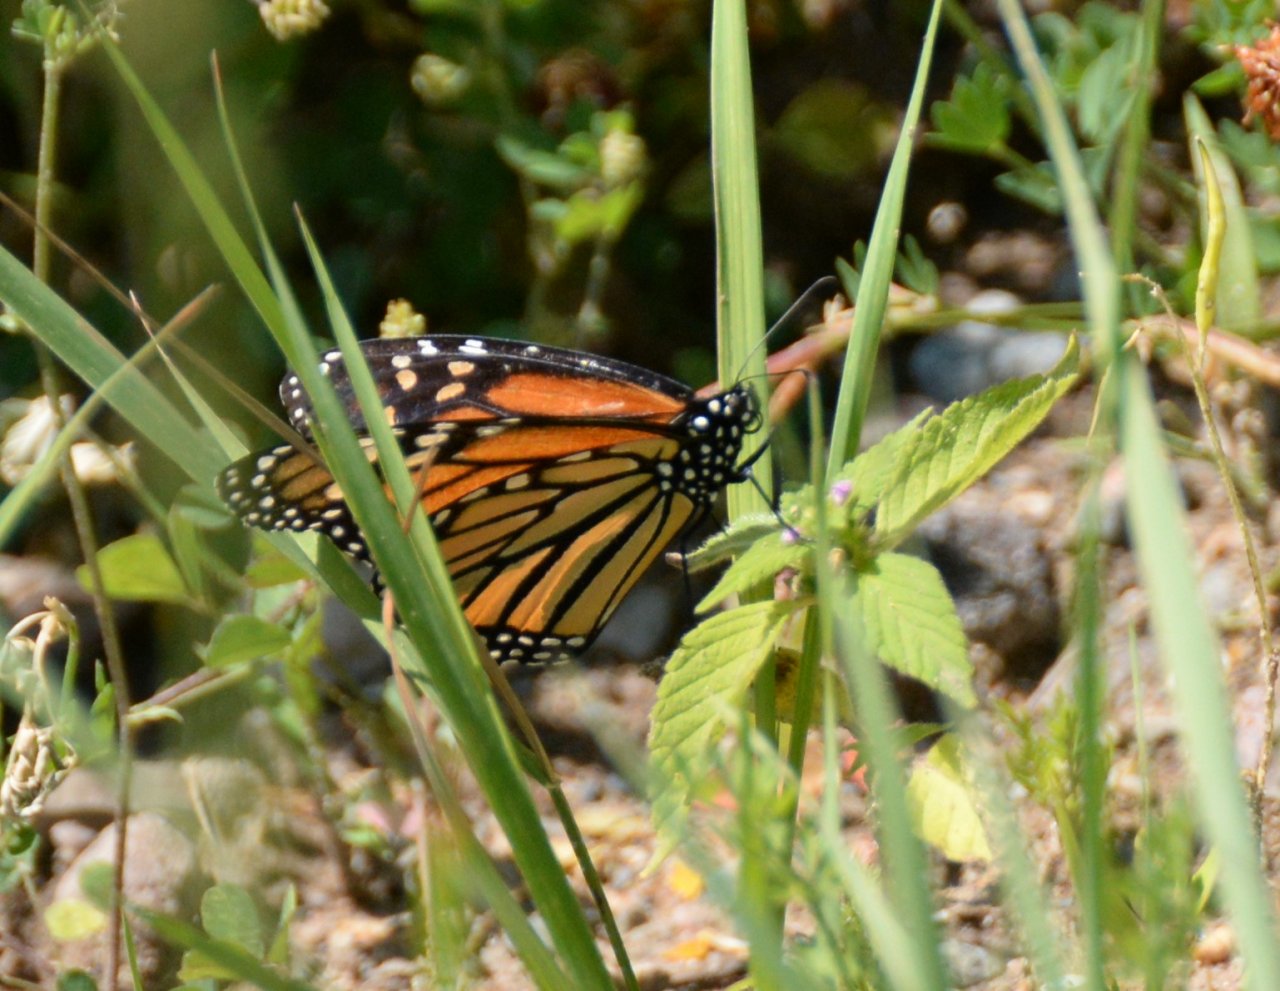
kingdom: Animalia
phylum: Arthropoda
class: Insecta
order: Lepidoptera
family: Nymphalidae
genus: Danaus
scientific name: Danaus plexippus
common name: Monarch
